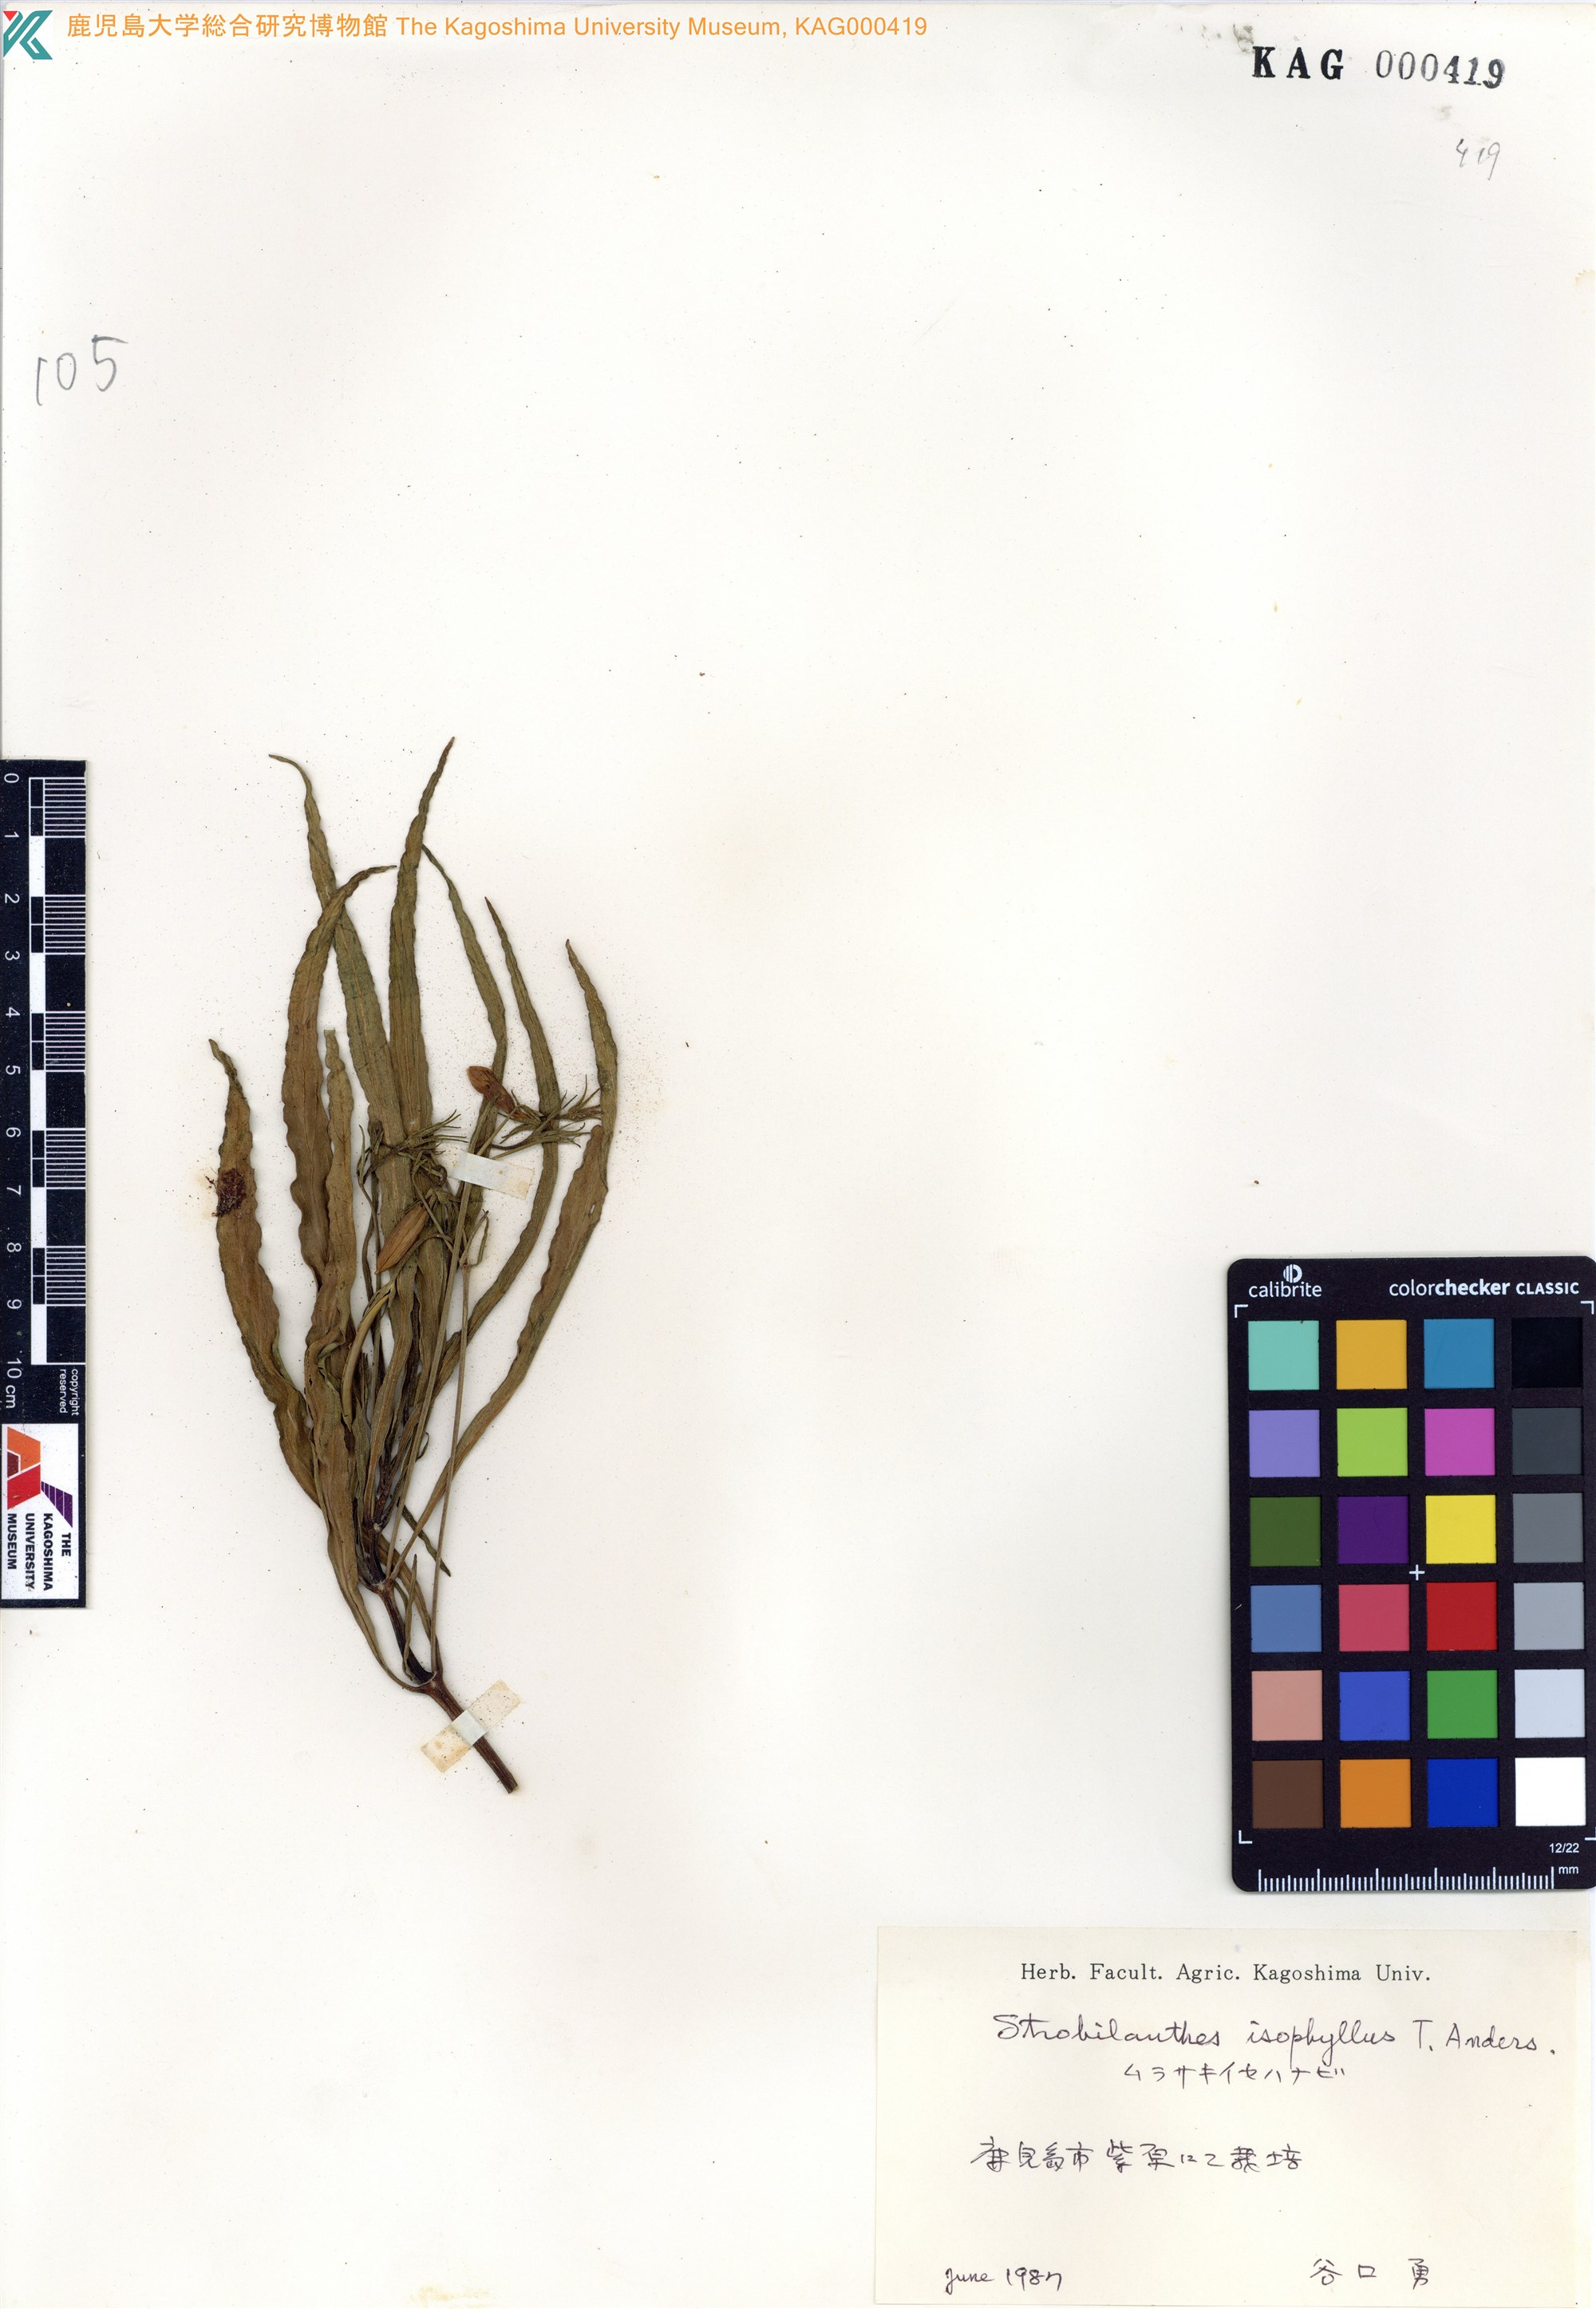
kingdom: Plantae
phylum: Tracheophyta
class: Magnoliopsida
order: Lamiales
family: Acanthaceae
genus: Strobilanthes
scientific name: Strobilanthes anisophylla
